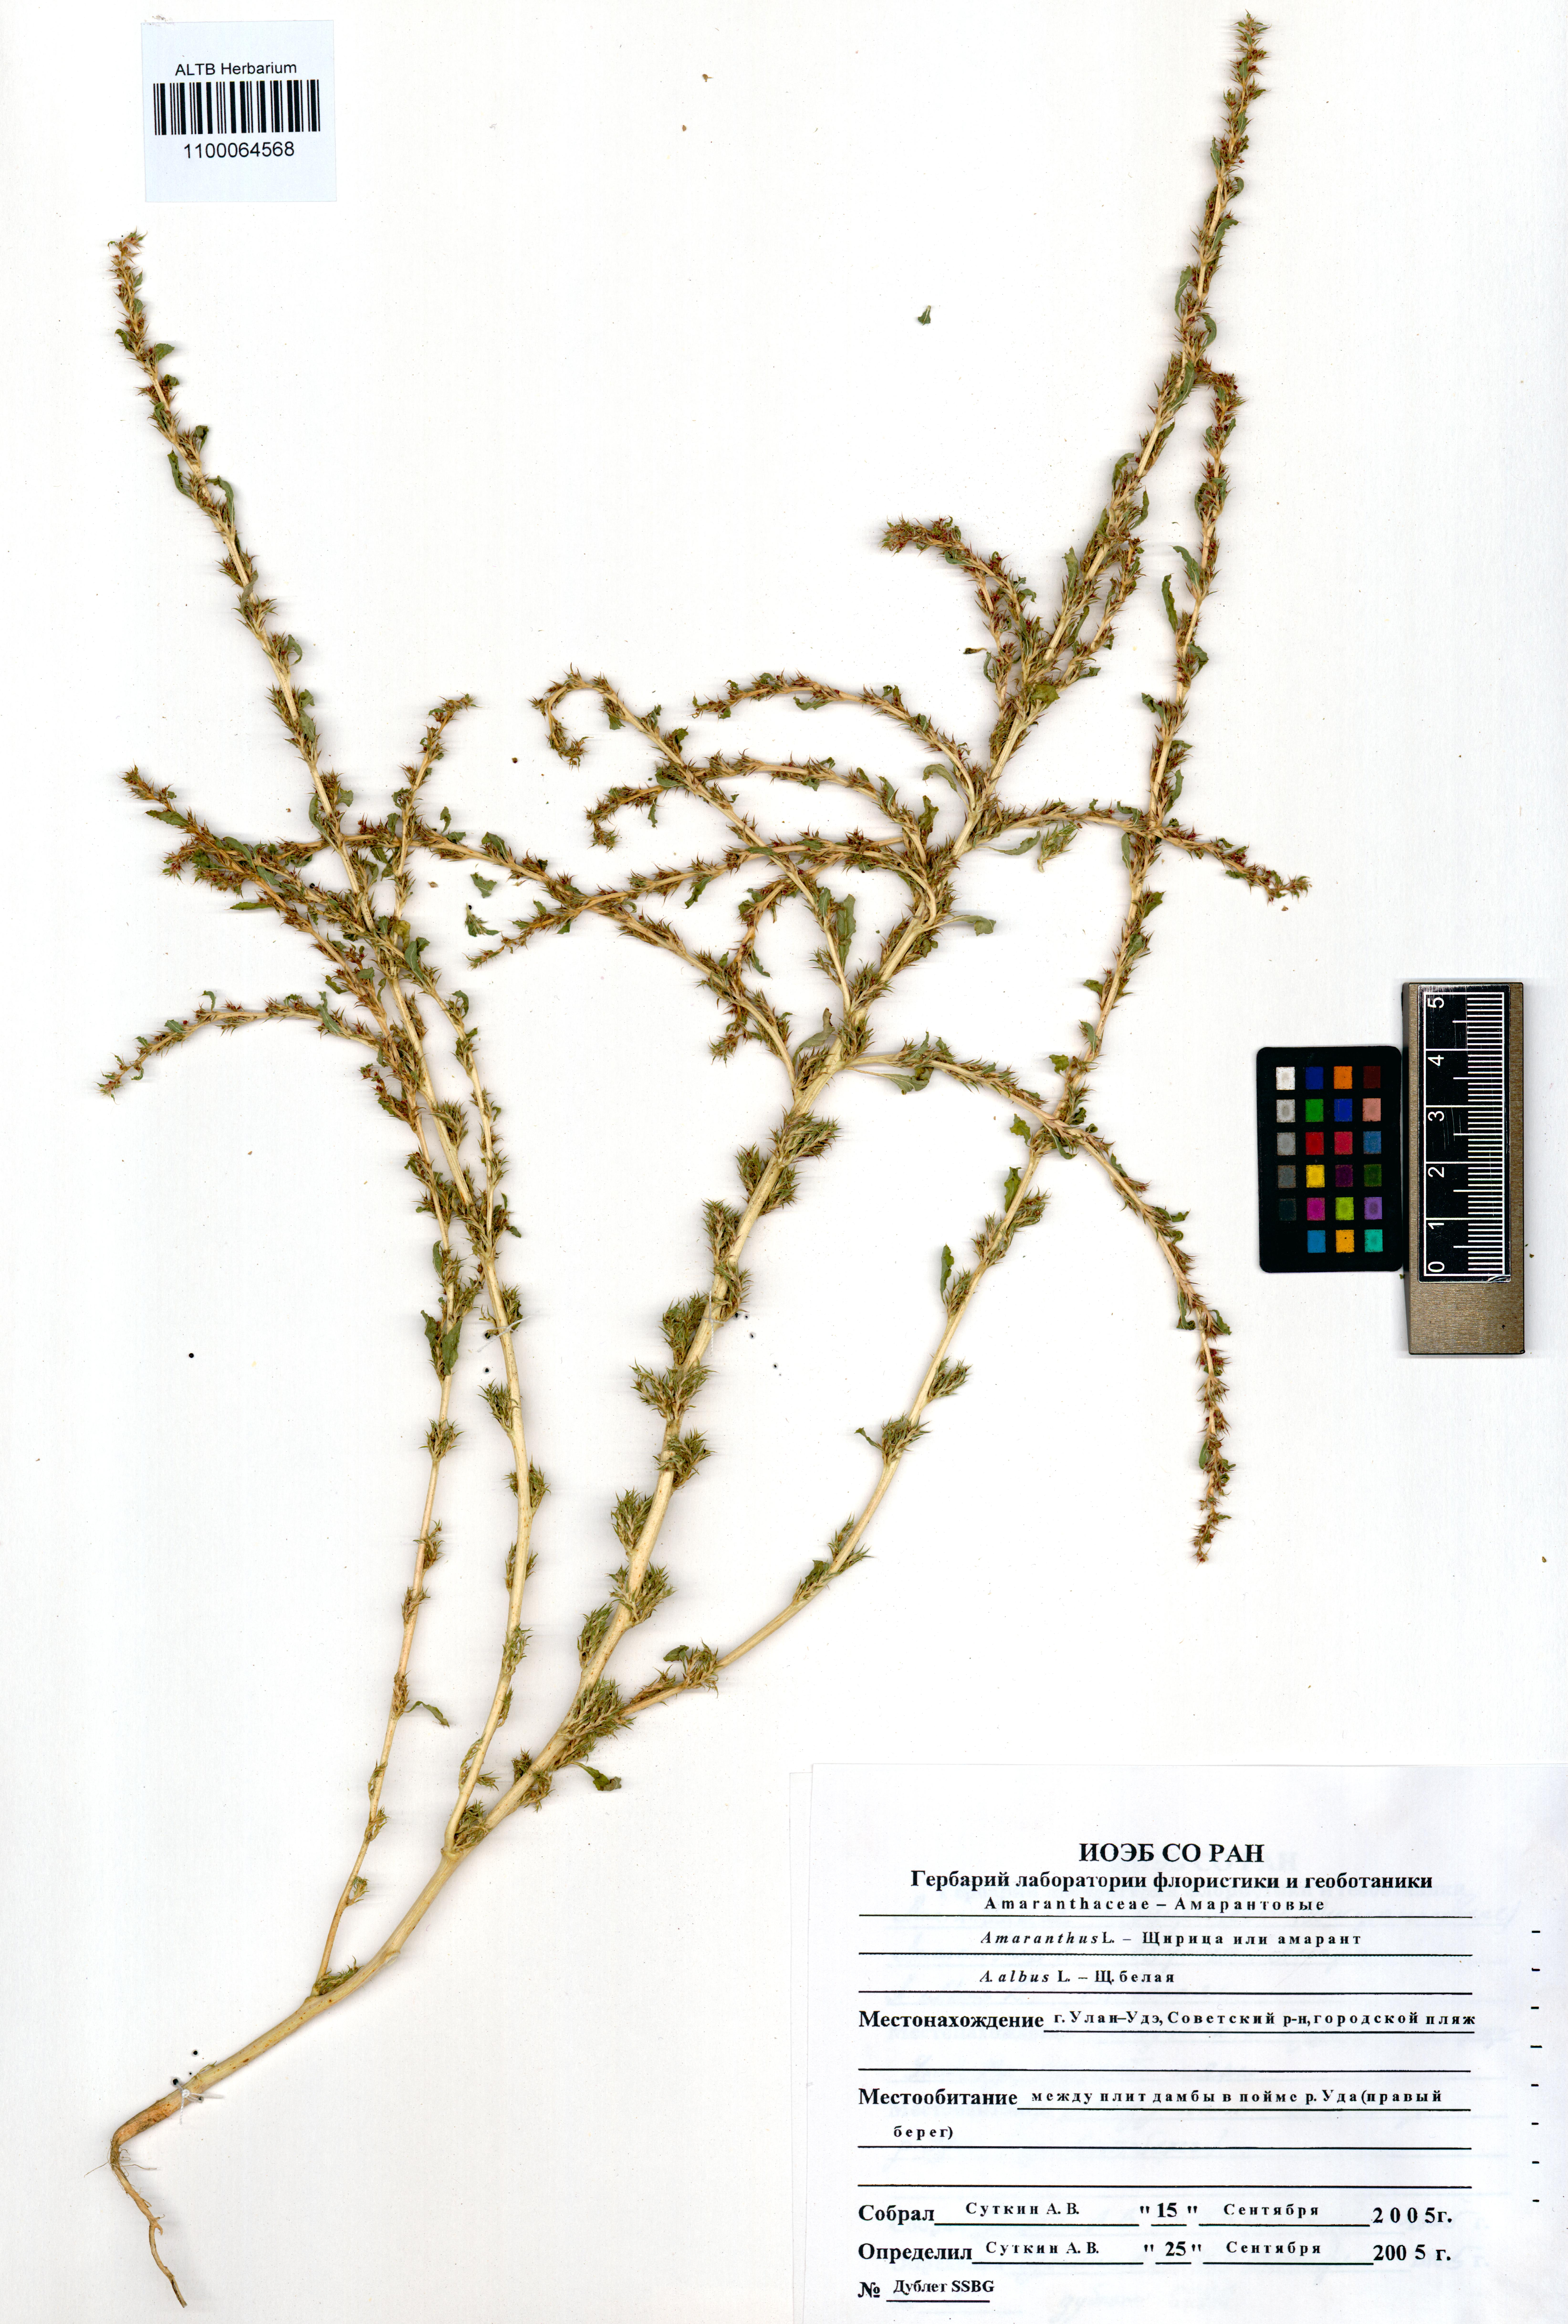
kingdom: Plantae
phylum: Tracheophyta
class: Magnoliopsida
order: Caryophyllales
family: Amaranthaceae
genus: Amaranthus
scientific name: Amaranthus albus
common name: White pigweed
